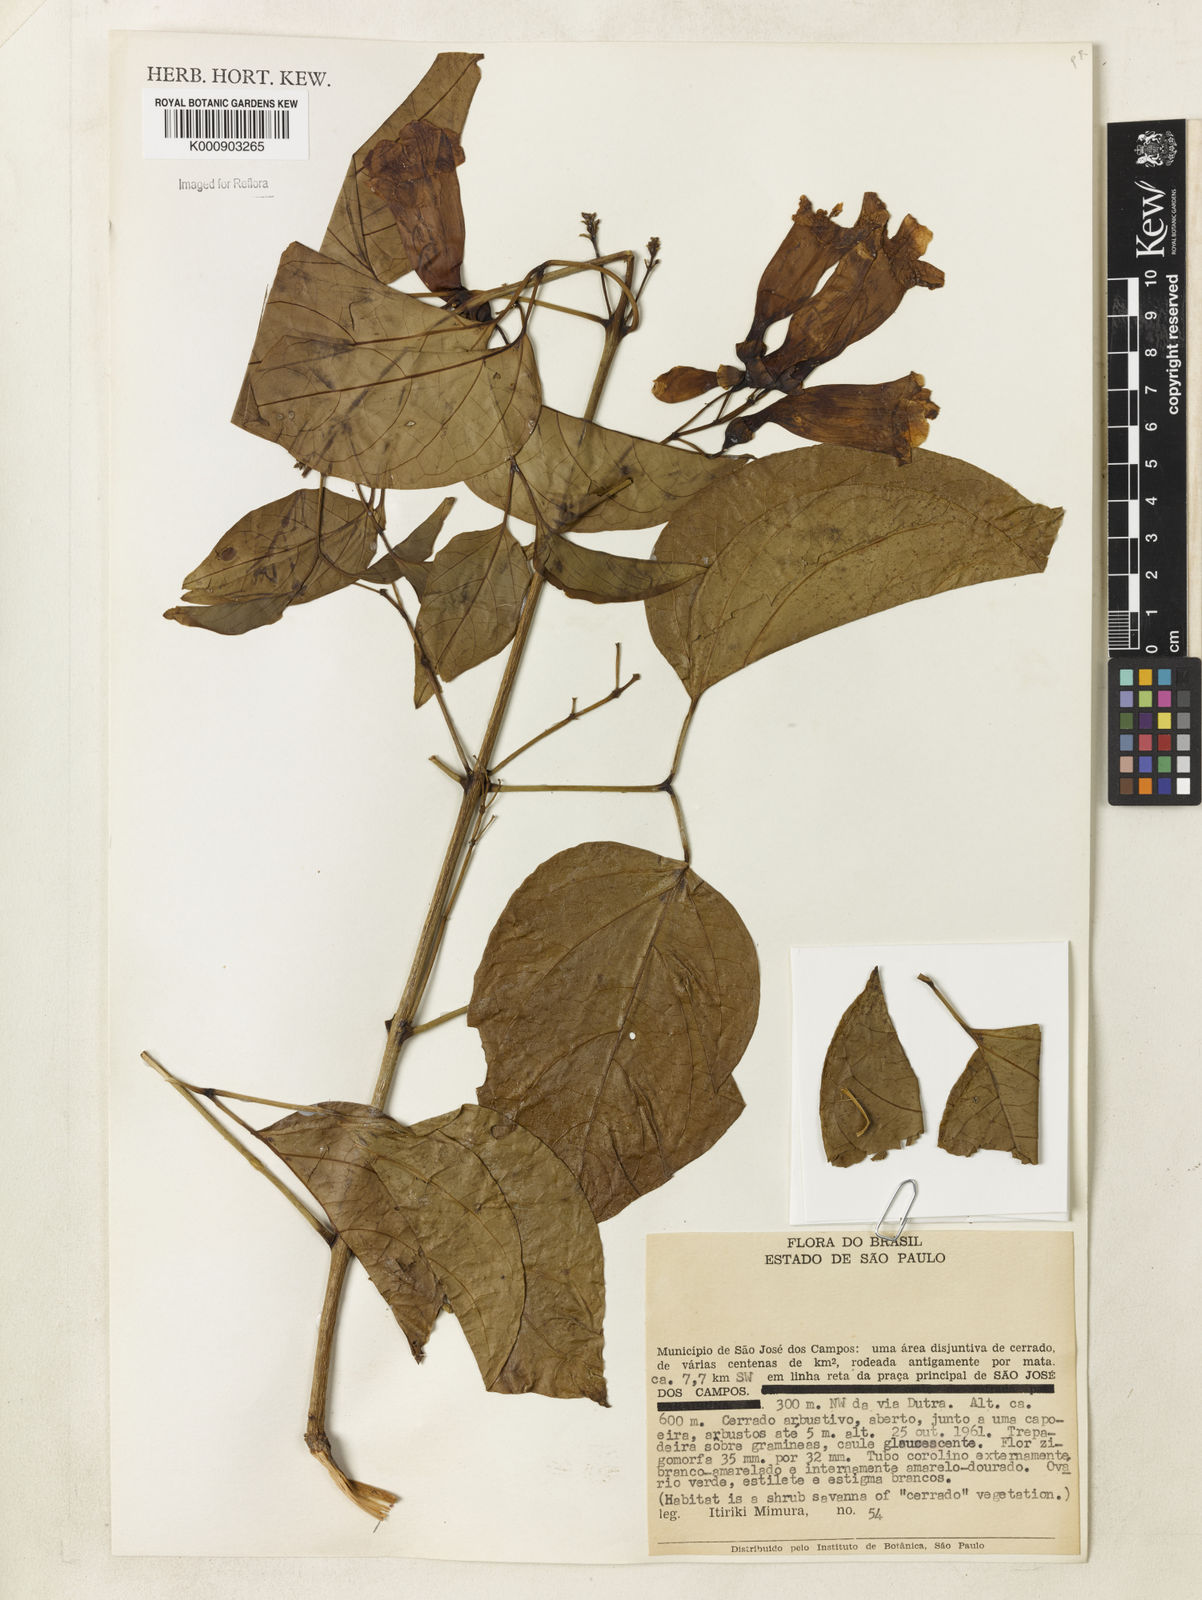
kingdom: Plantae
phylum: Tracheophyta
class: Magnoliopsida
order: Lamiales
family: Bignoniaceae
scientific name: Bignoniaceae
